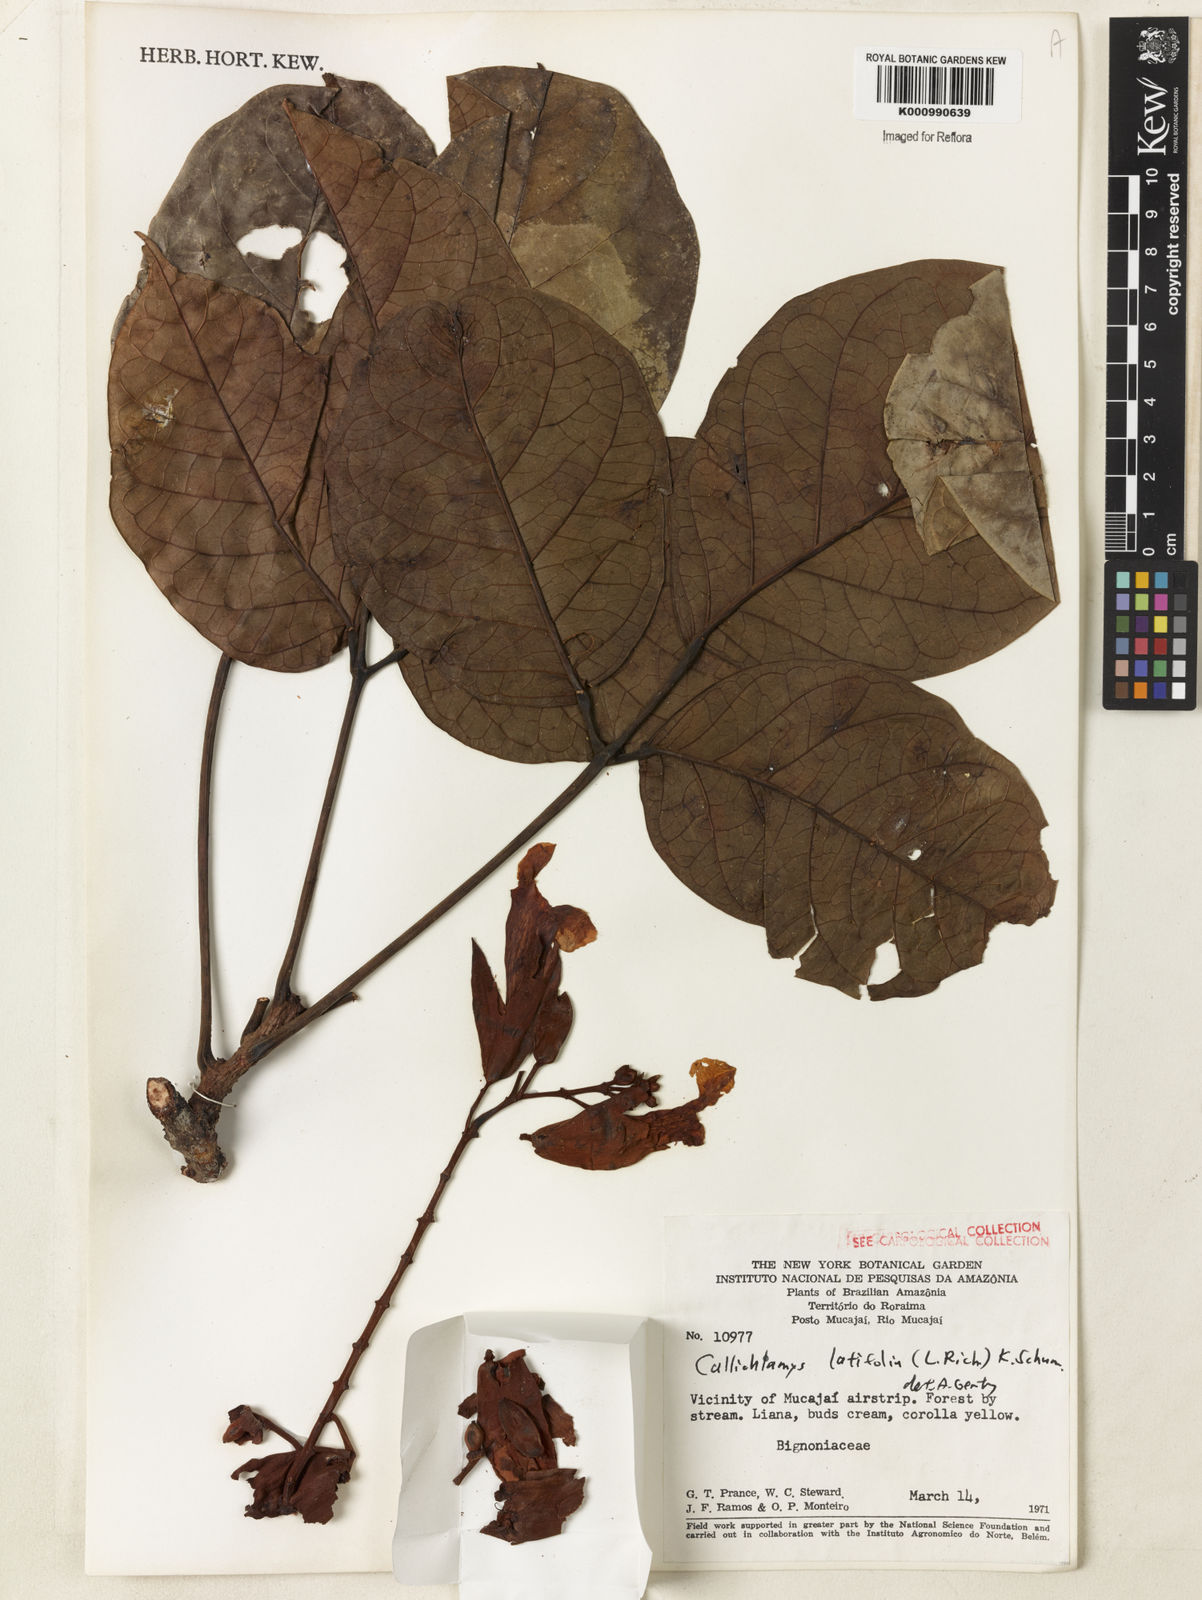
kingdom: Plantae
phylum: Tracheophyta
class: Magnoliopsida
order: Lamiales
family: Bignoniaceae
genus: Callichlamys
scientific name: Callichlamys latifolia
